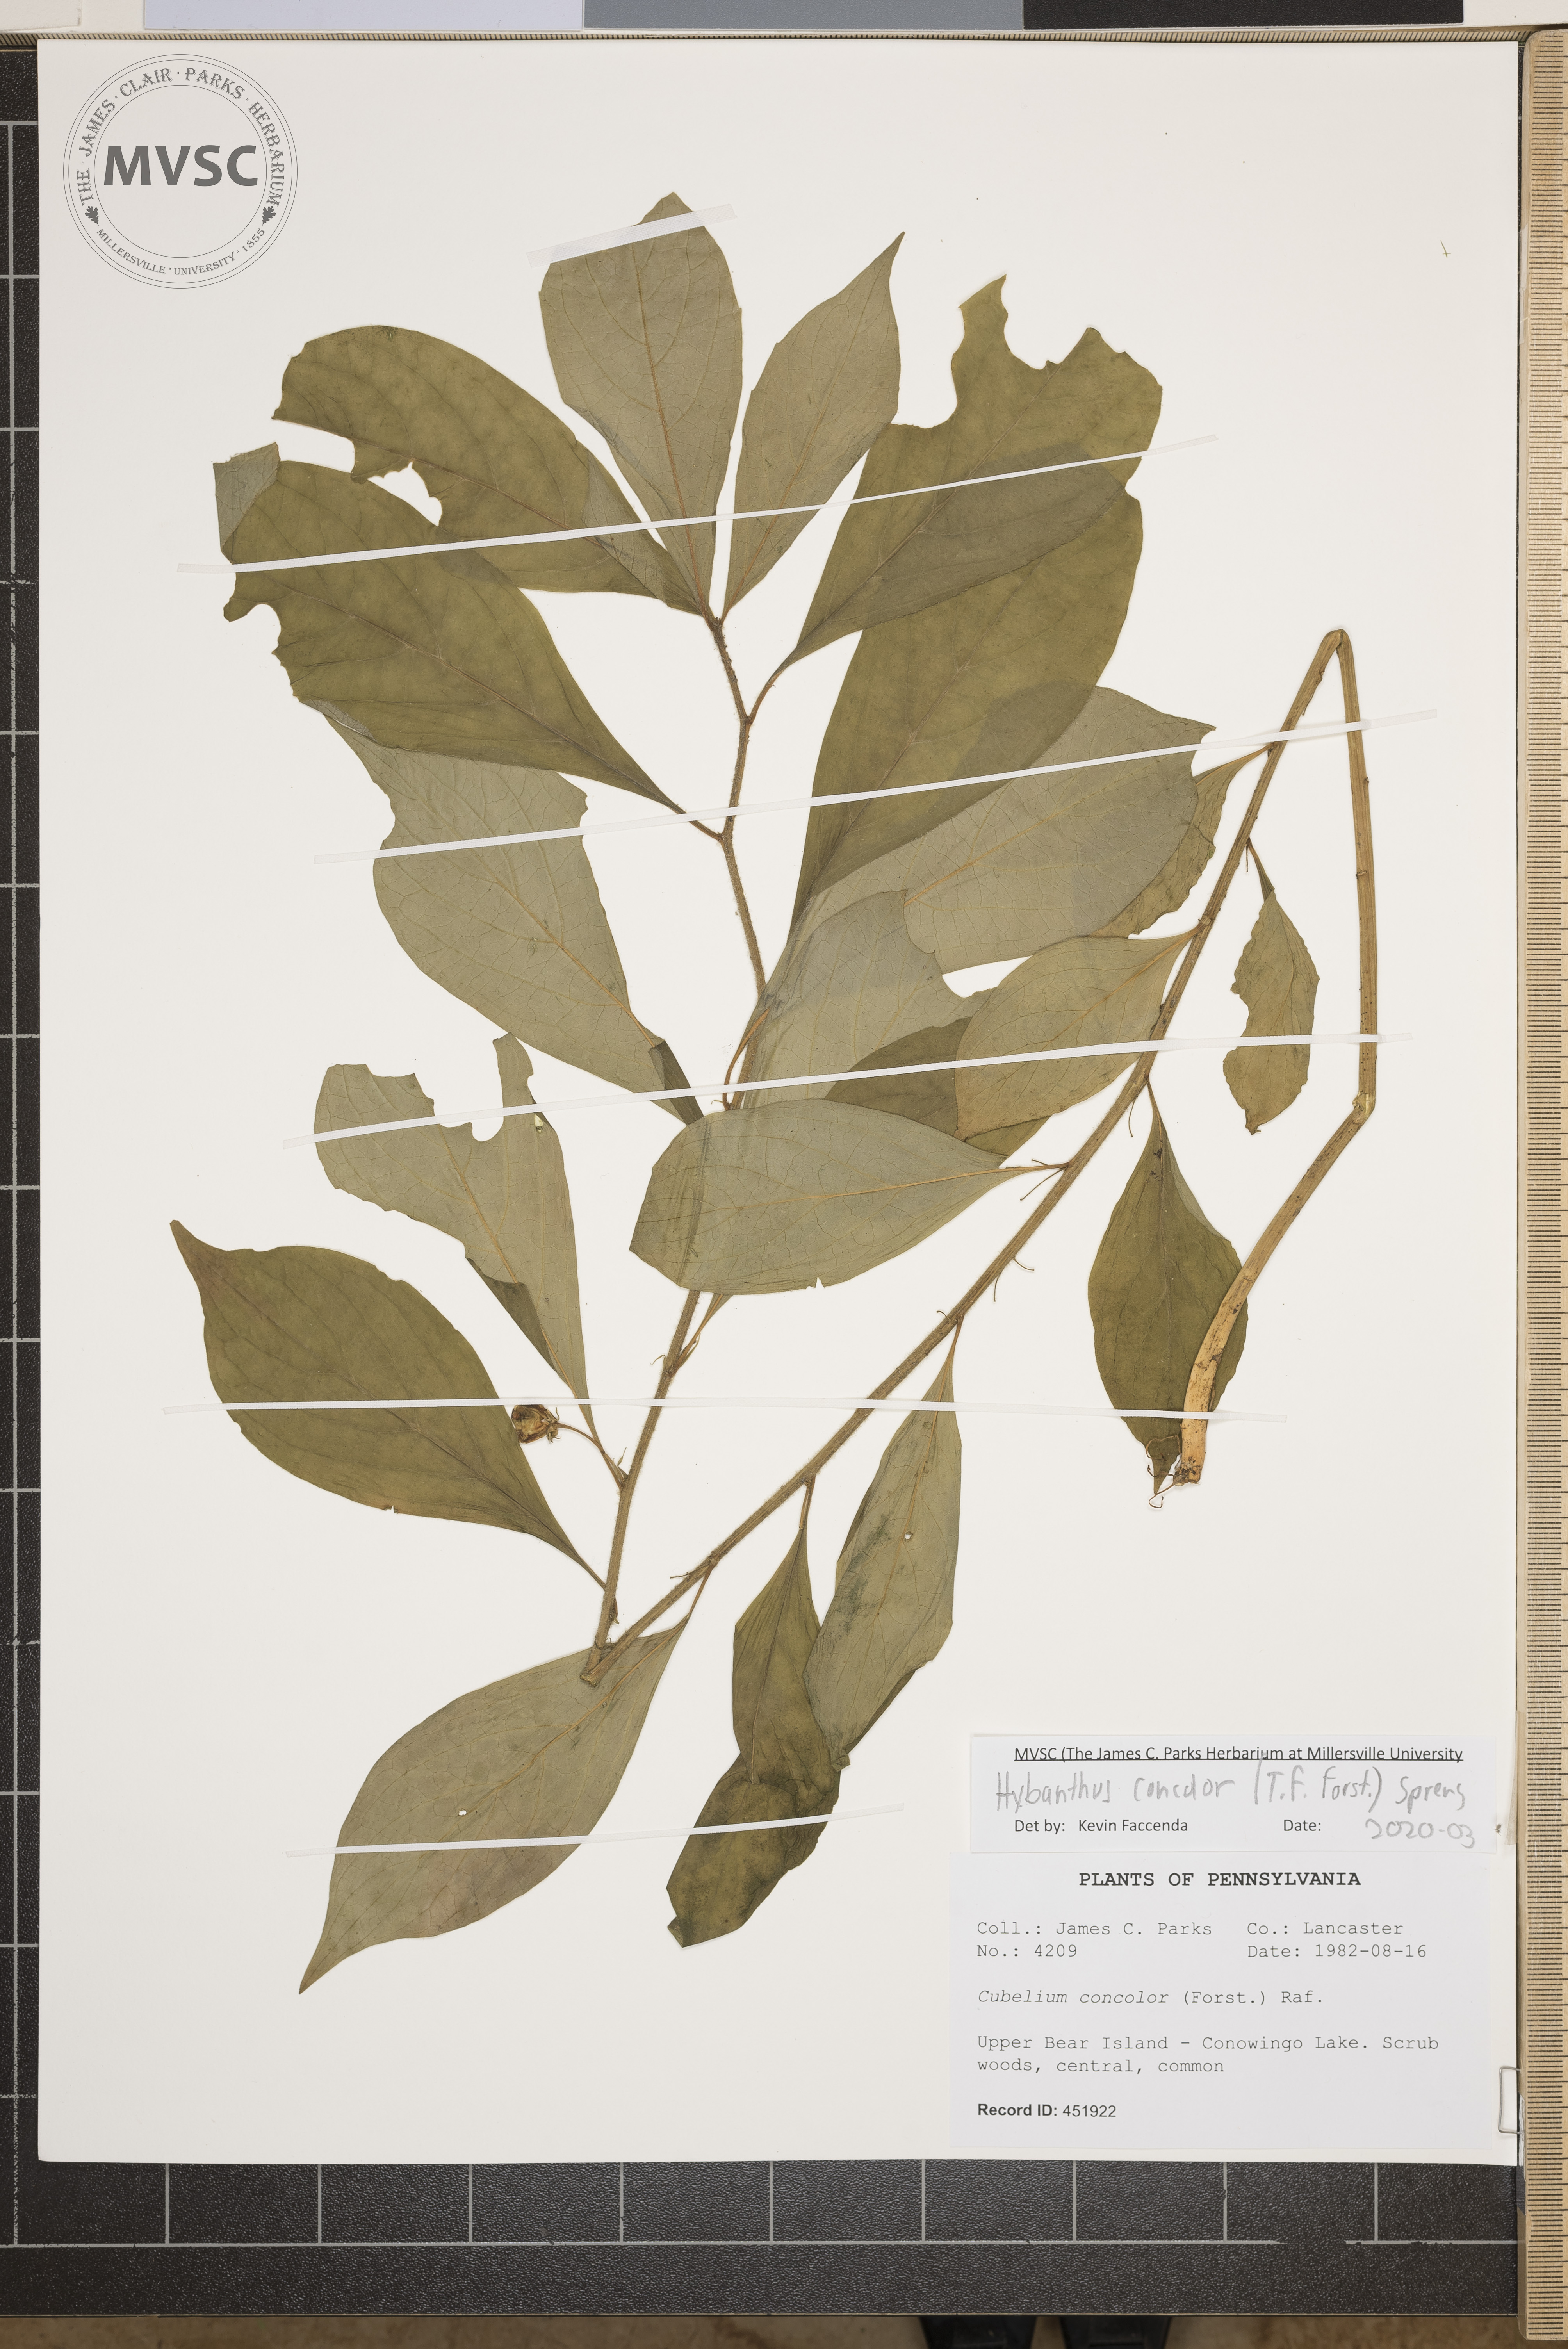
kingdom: Plantae
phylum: Tracheophyta
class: Magnoliopsida
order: Malpighiales
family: Violaceae
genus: Cubelium
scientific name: Cubelium concolor
